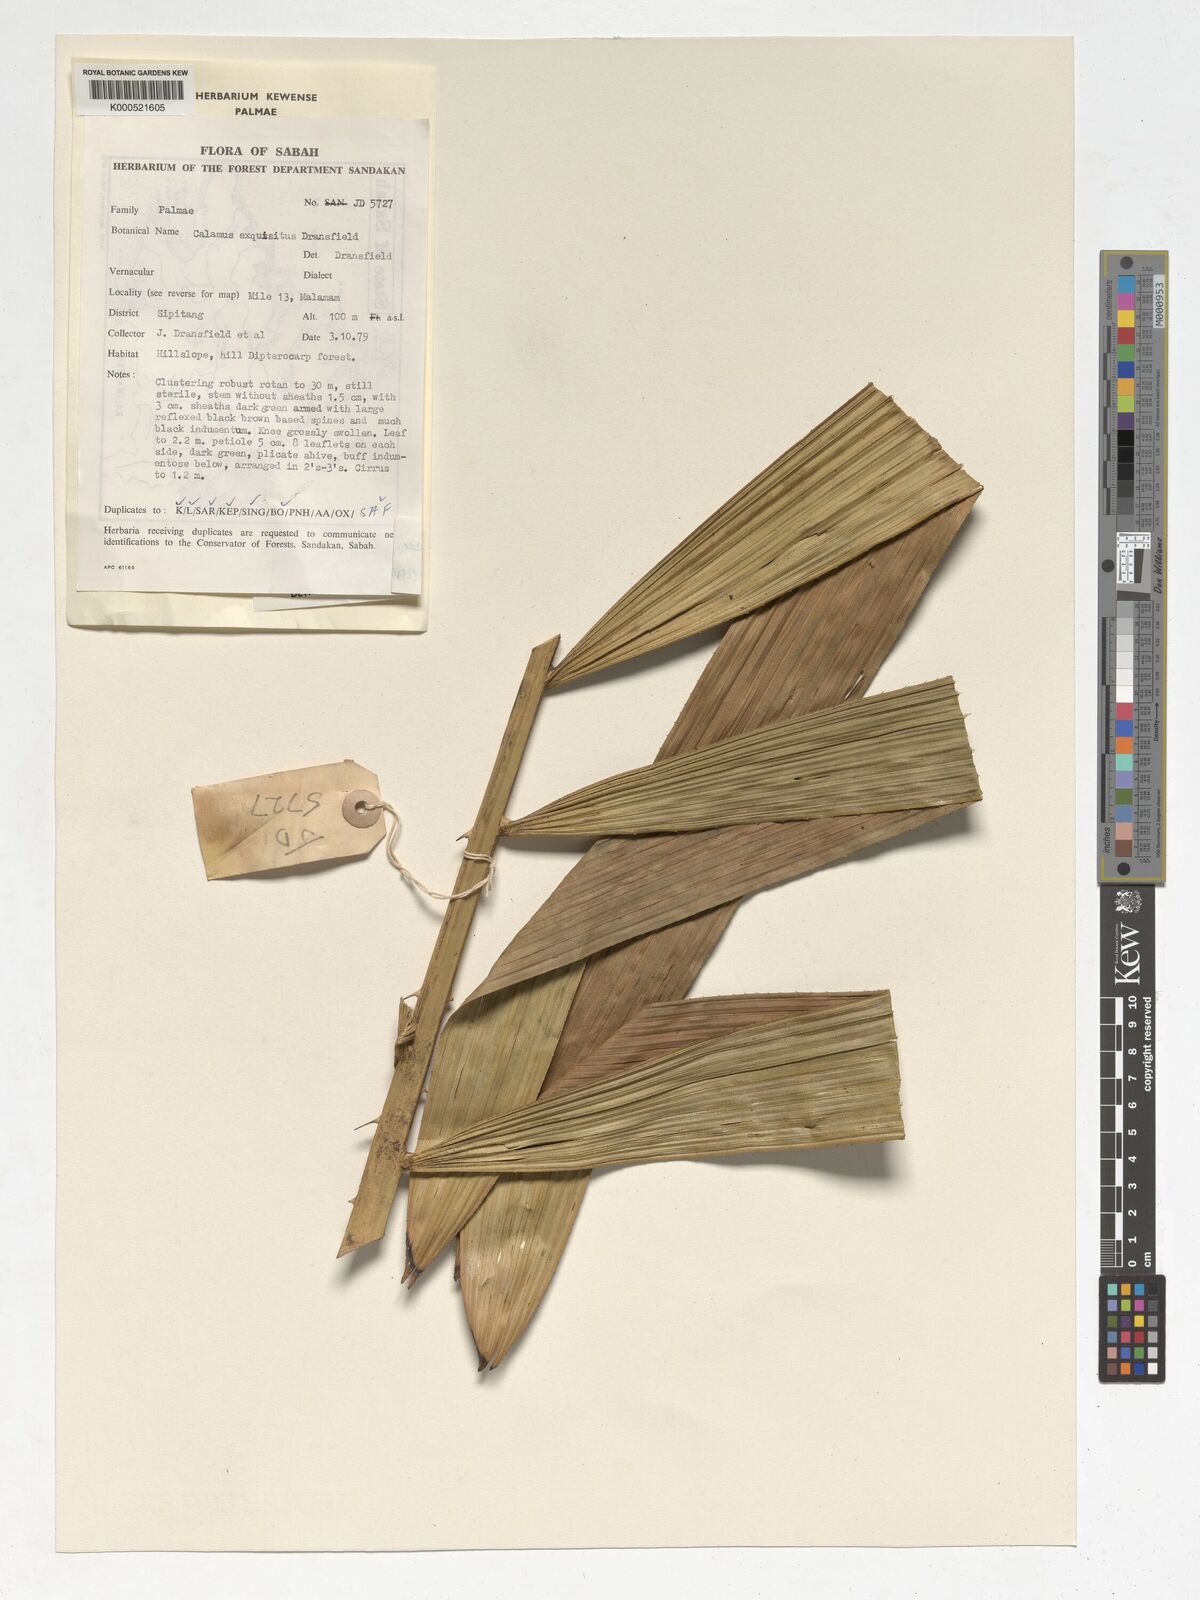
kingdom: Plantae
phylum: Tracheophyta
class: Liliopsida
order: Arecales
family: Arecaceae
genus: Calamus
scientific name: Calamus optimus
